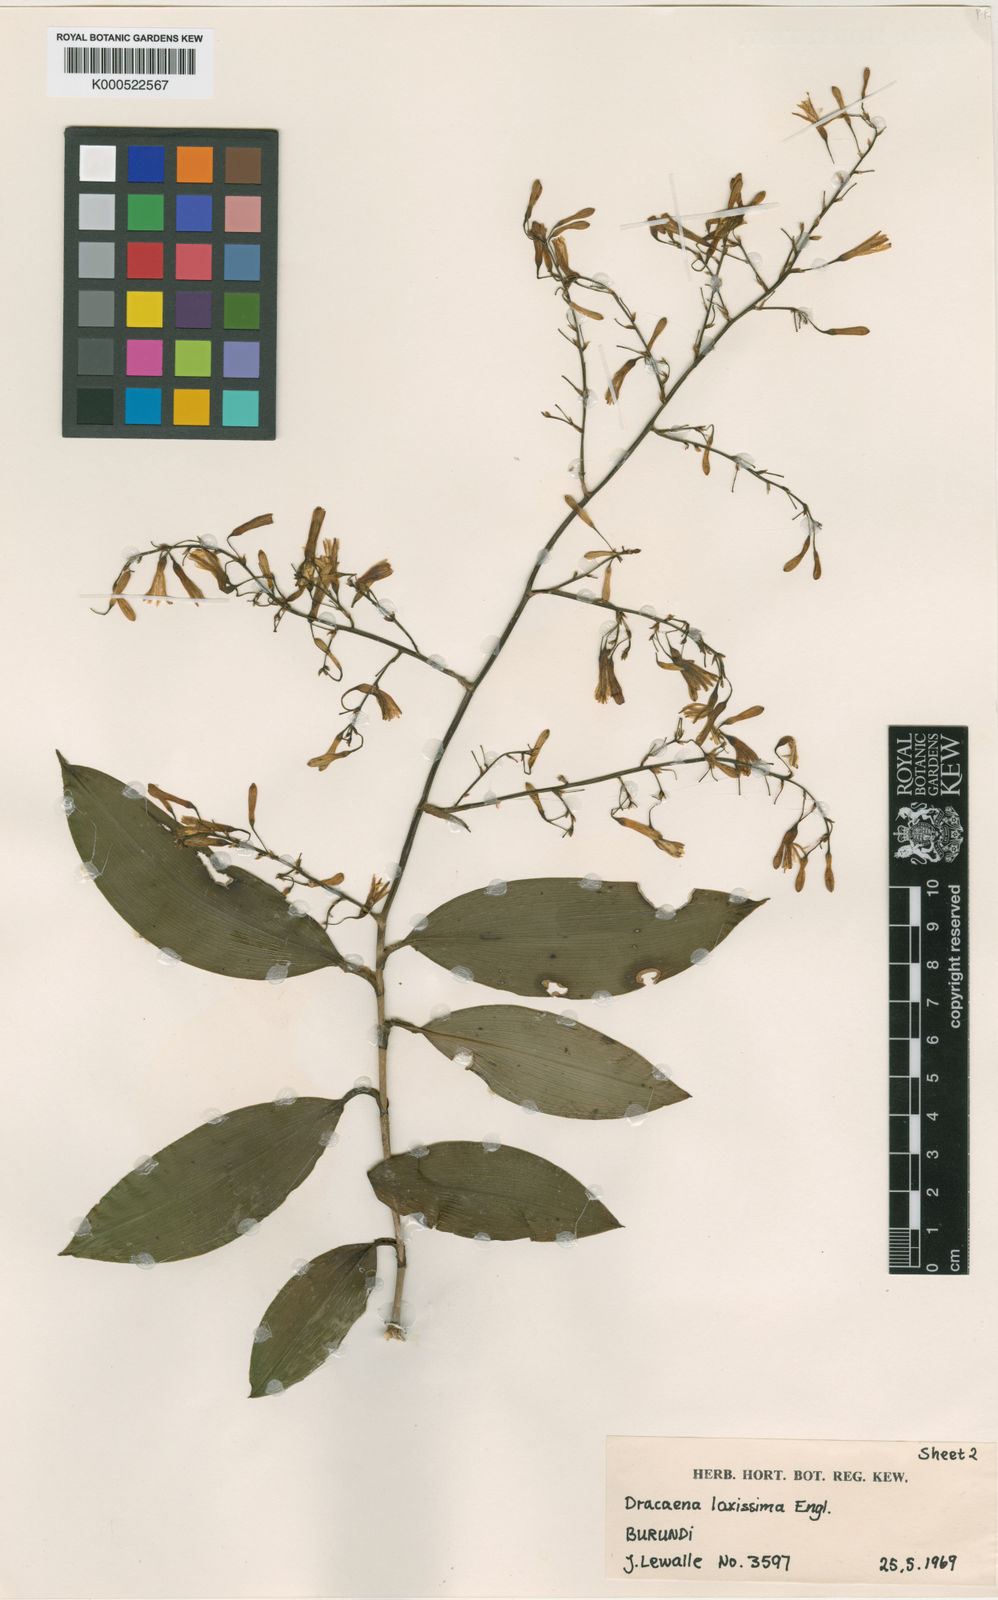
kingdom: Plantae
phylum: Tracheophyta
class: Liliopsida
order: Asparagales
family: Asparagaceae
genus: Dracaena
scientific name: Dracaena laxissima
